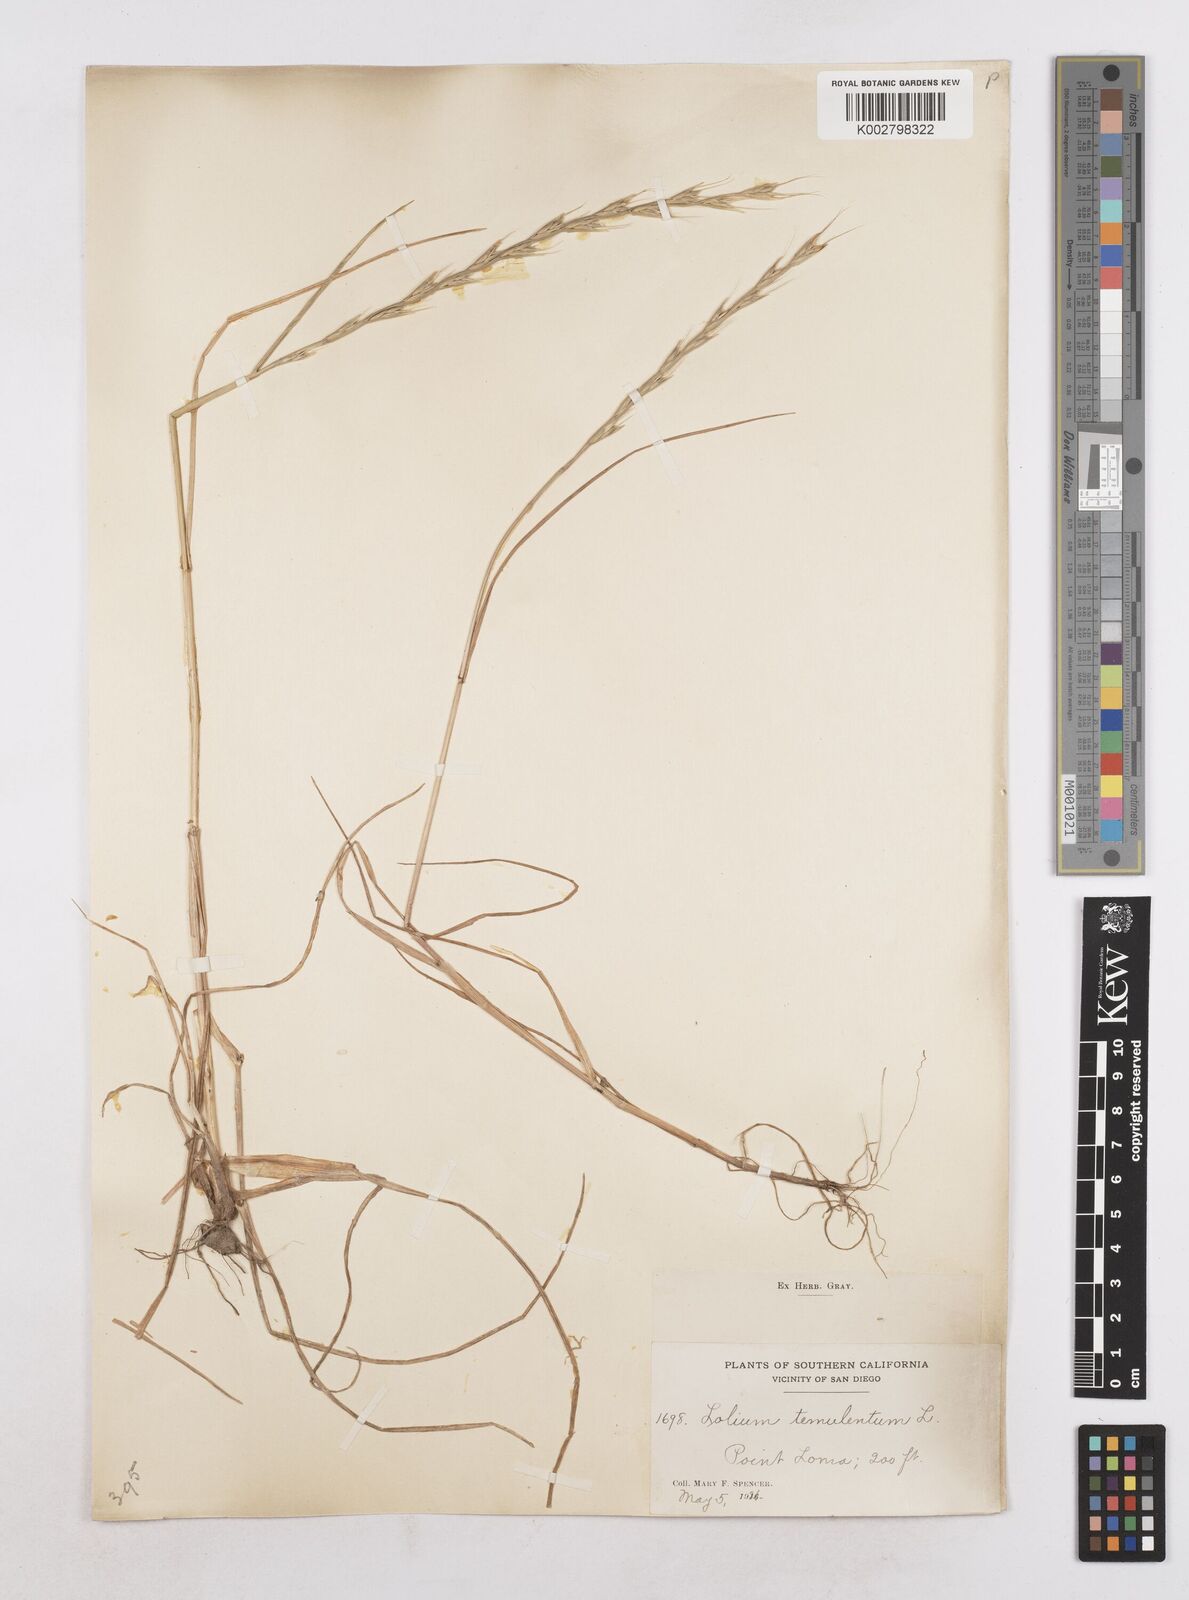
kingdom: Plantae
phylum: Tracheophyta
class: Liliopsida
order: Poales
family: Poaceae
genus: Lolium
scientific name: Lolium temulentum
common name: Darnel
